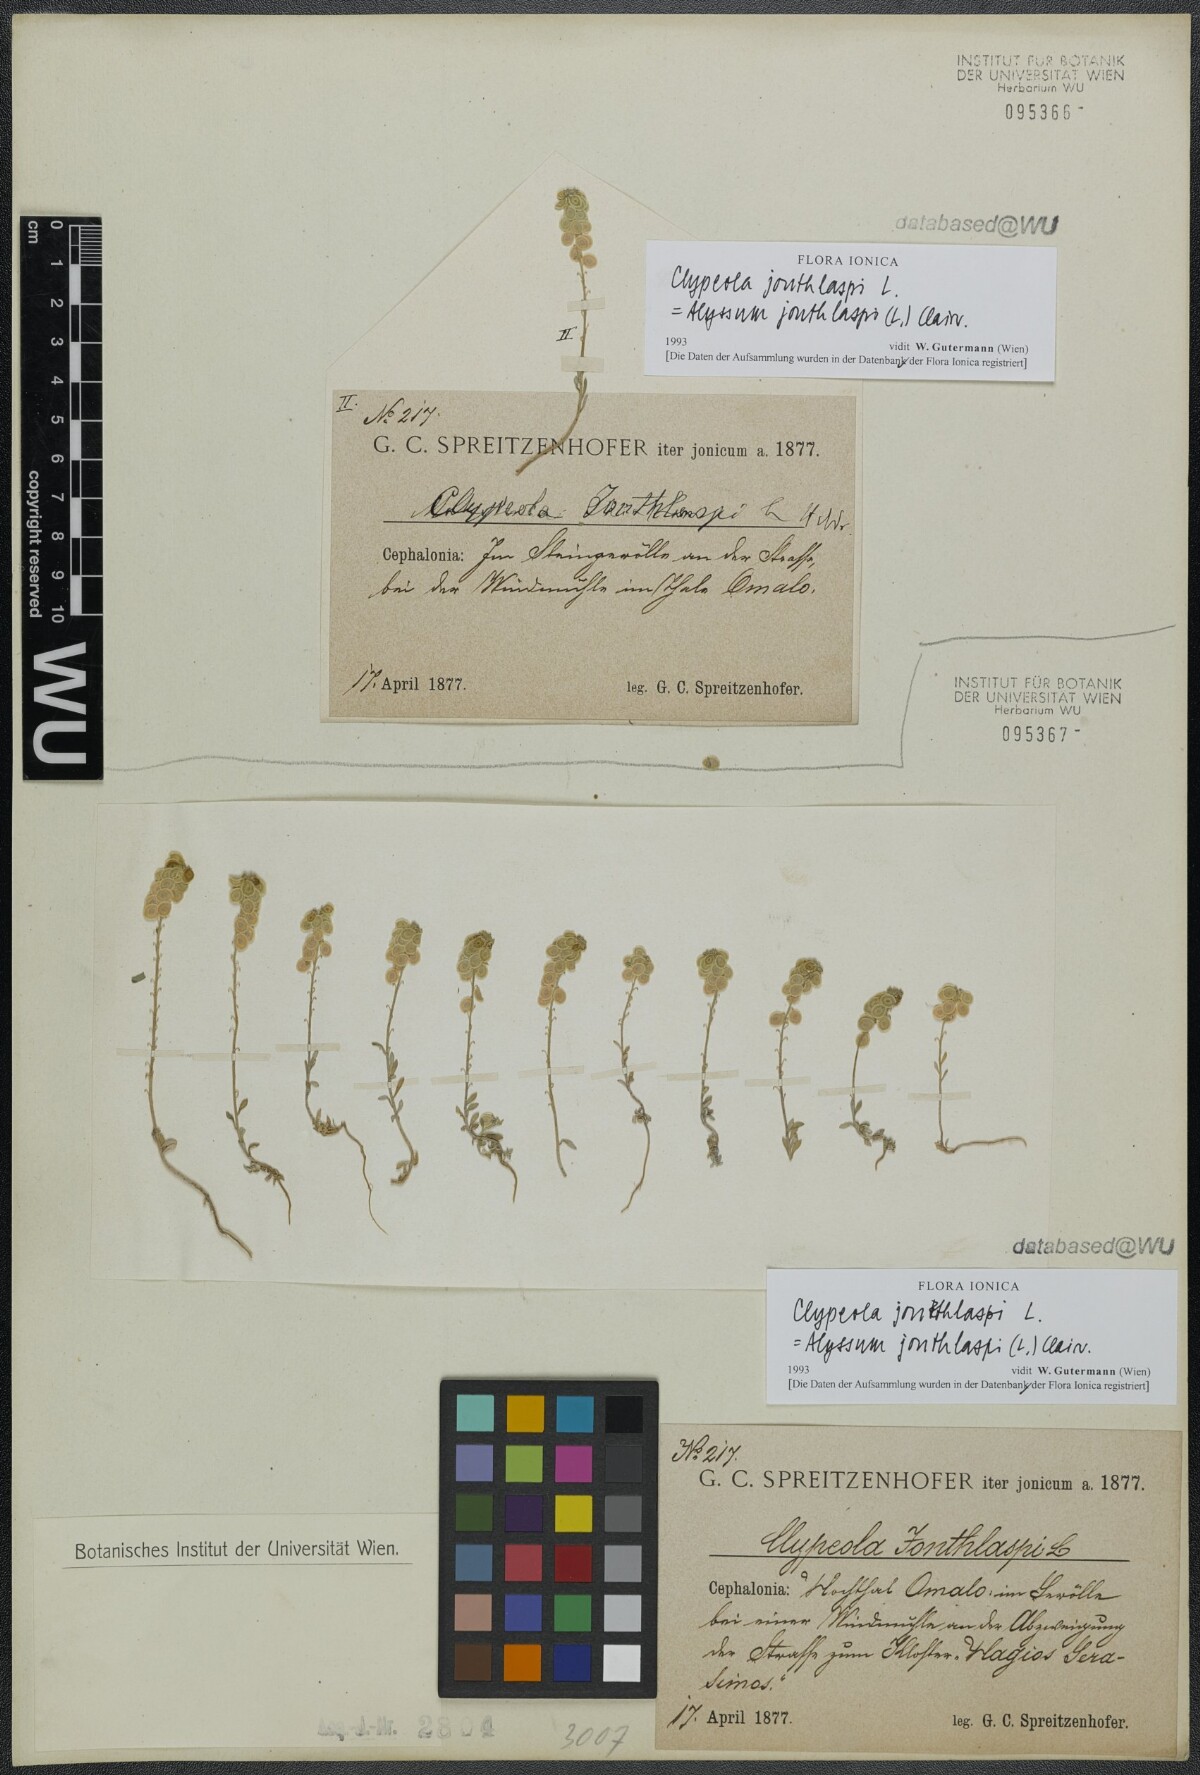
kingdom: Plantae
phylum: Tracheophyta
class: Magnoliopsida
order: Brassicales
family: Brassicaceae
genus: Clypeola
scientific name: Clypeola jonthlaspi
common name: Disk cress
